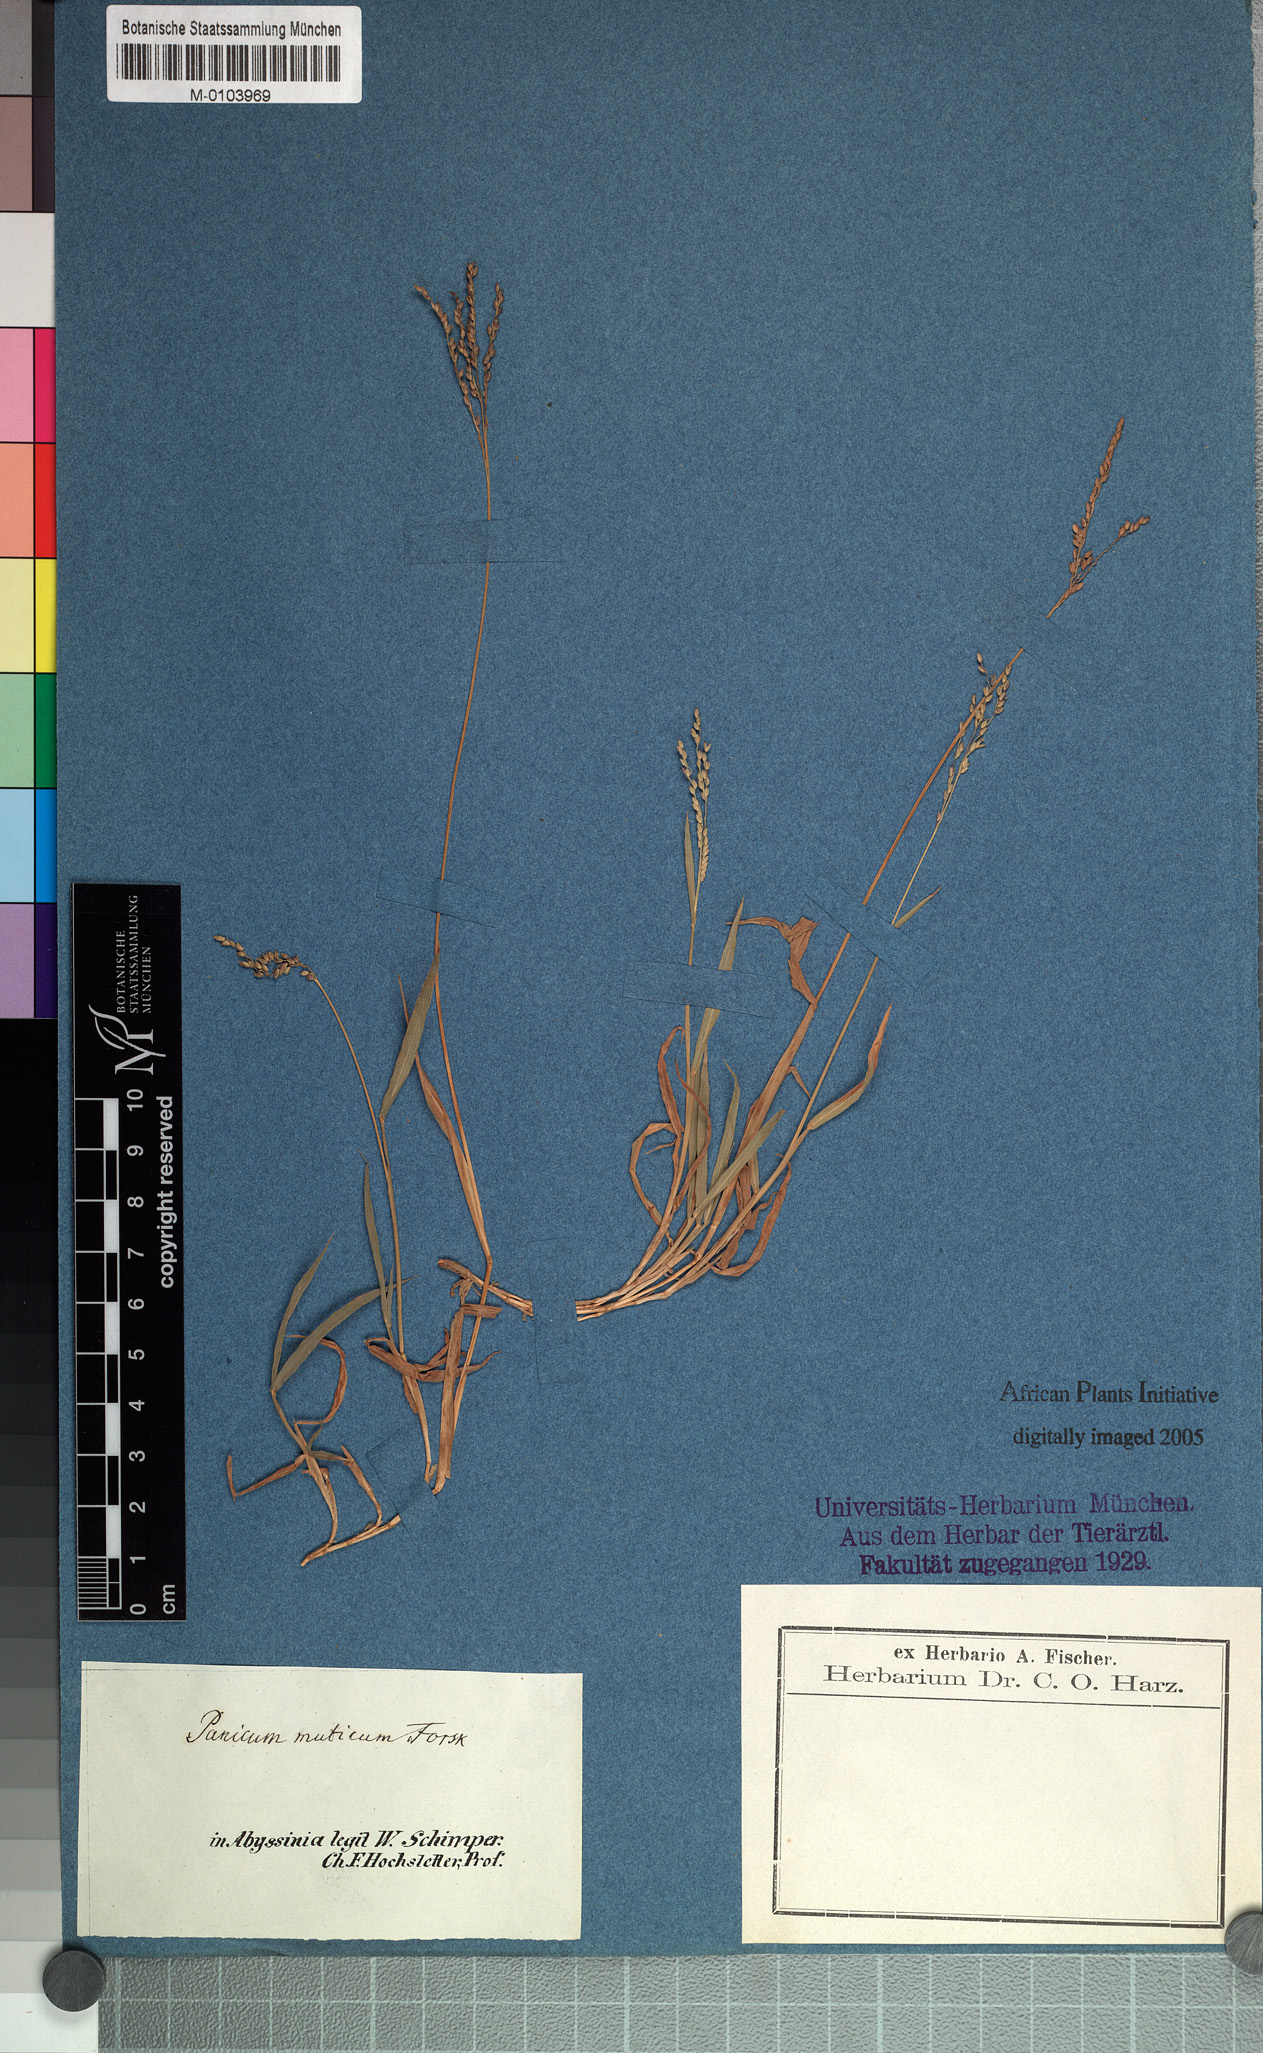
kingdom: Plantae
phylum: Tracheophyta
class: Liliopsida
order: Poales
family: Poaceae
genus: Digitaria
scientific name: Digitaria abyssinica
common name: African couchgrass
